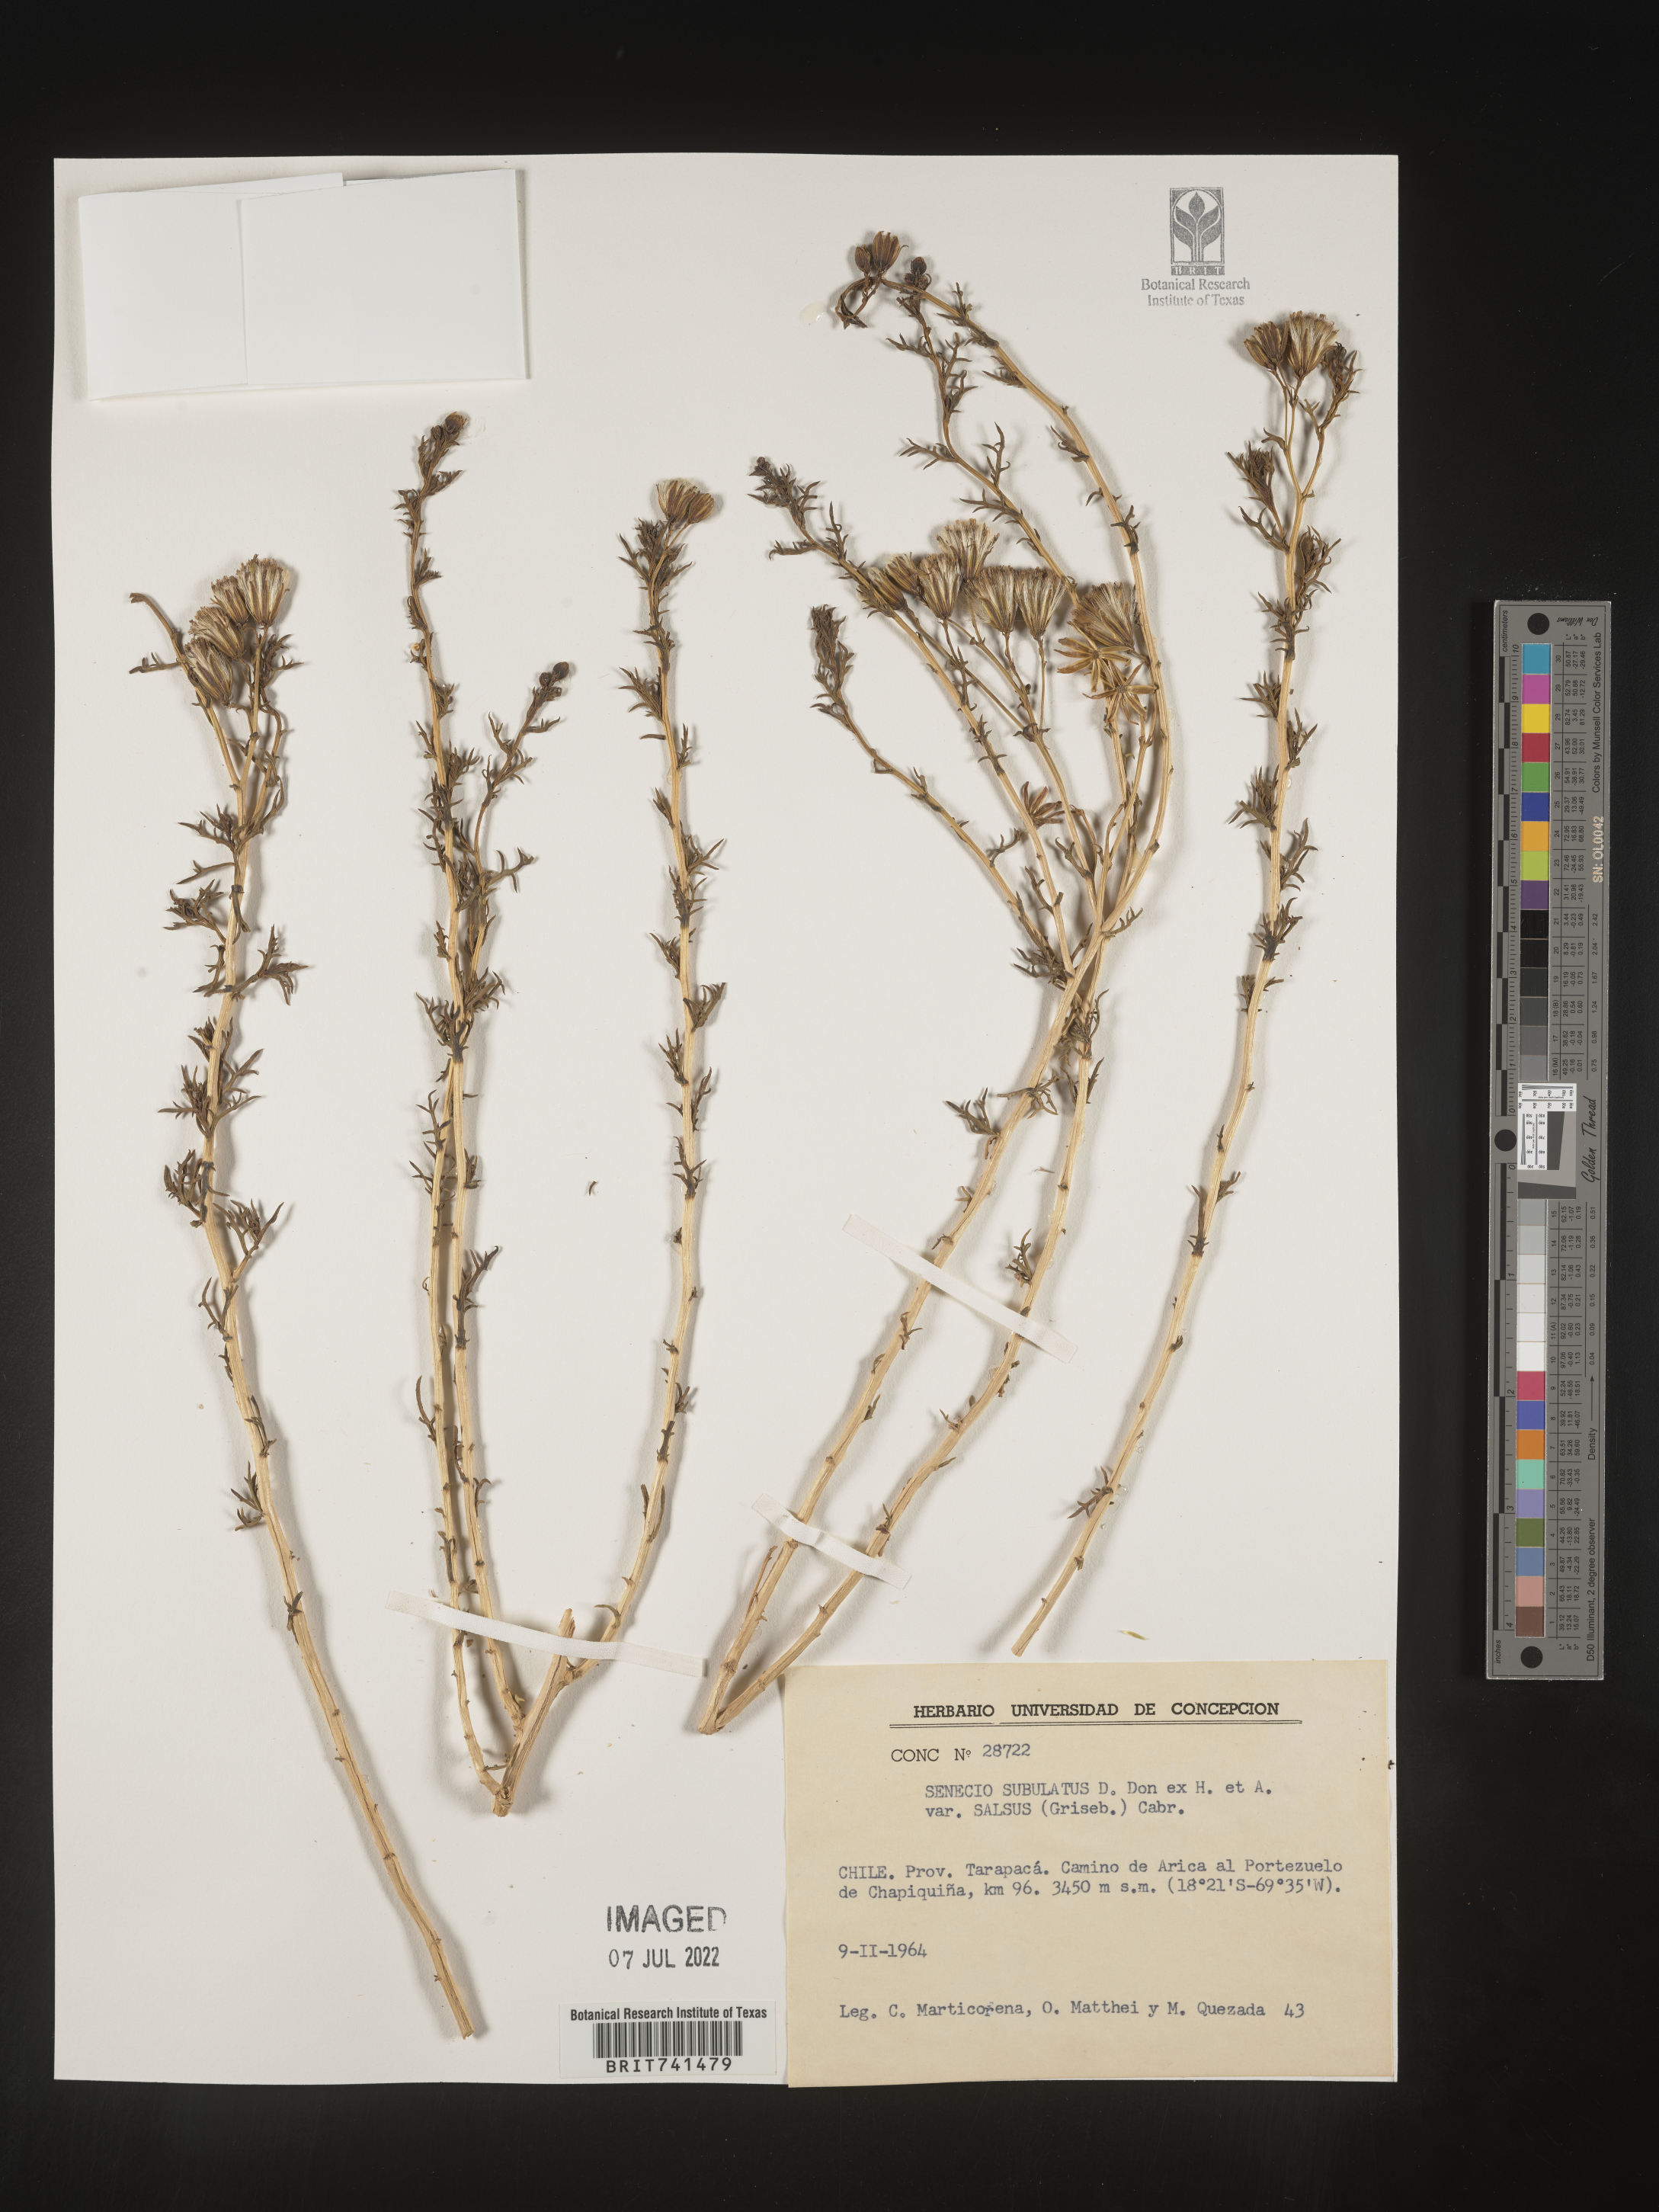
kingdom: Plantae
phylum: Tracheophyta
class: Magnoliopsida
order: Asterales
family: Asteraceae
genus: Senecio
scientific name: Senecio
